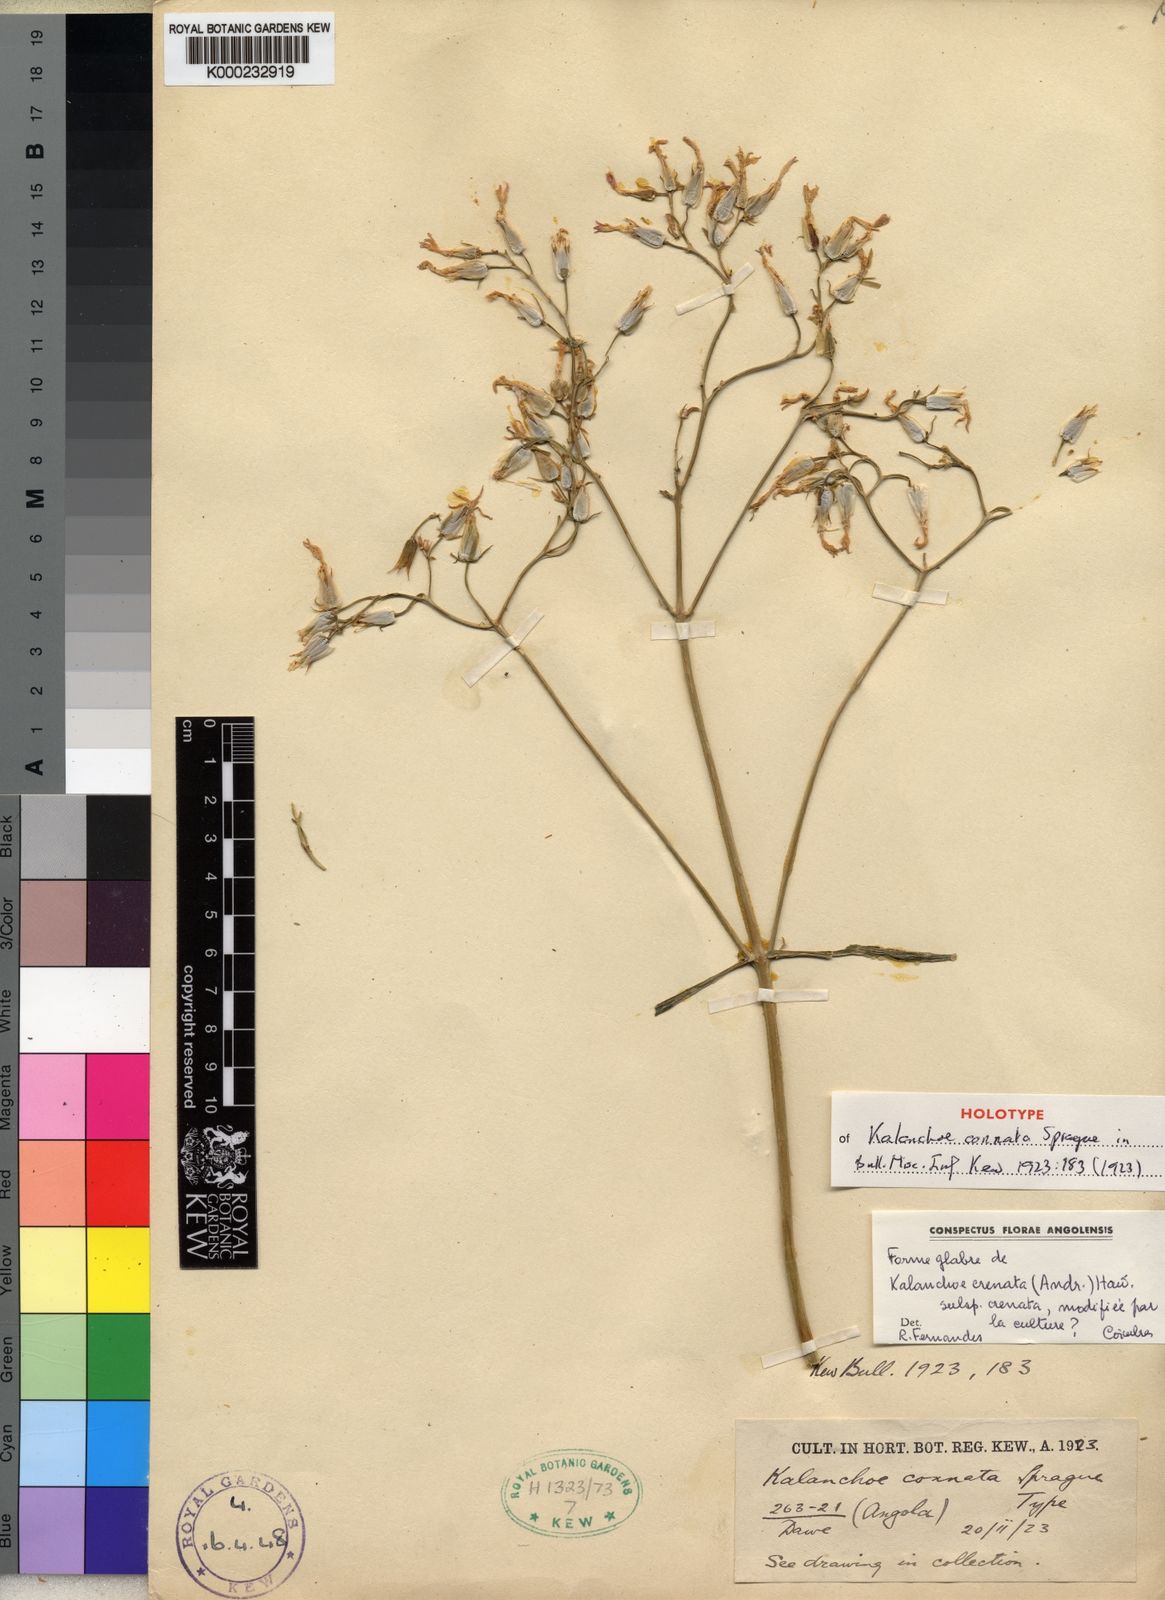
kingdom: Plantae
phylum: Tracheophyta
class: Magnoliopsida
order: Saxifragales
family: Crassulaceae
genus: Kalanchoe
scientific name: Kalanchoe crenata
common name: Neverdie
